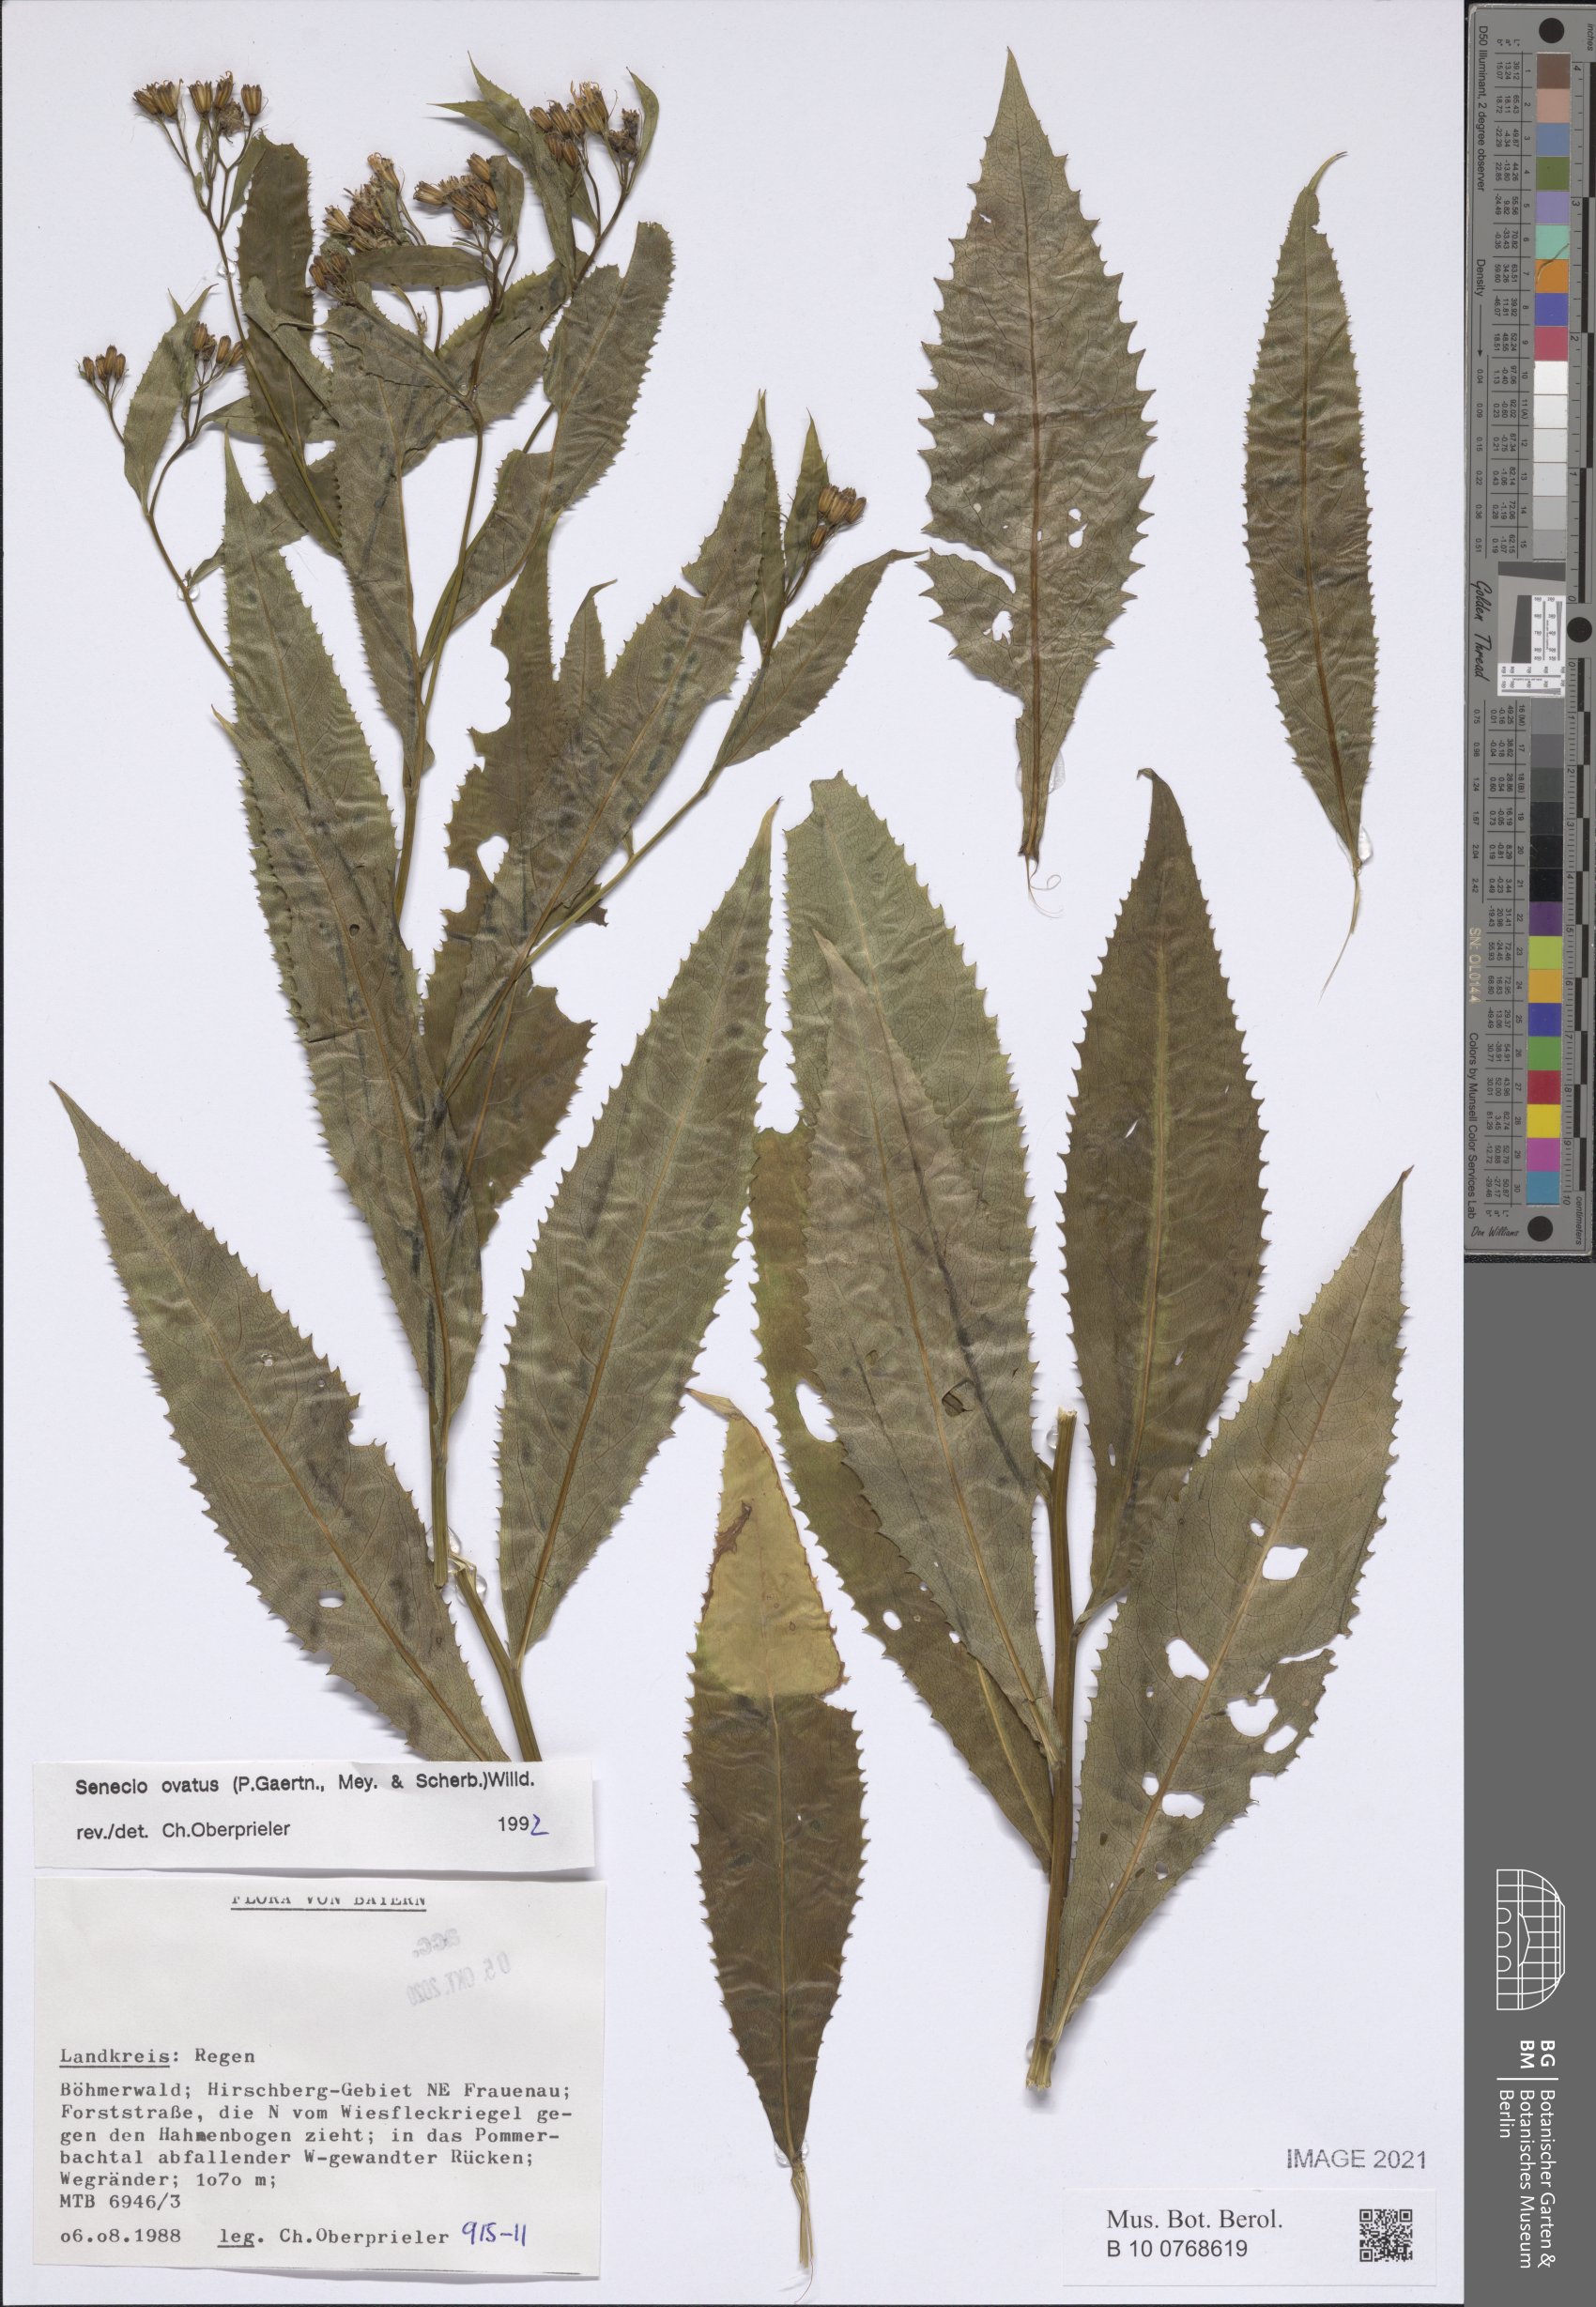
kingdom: Plantae
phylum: Tracheophyta
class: Magnoliopsida
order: Asterales
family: Asteraceae
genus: Senecio
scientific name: Senecio ovatus
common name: Wood ragwort
